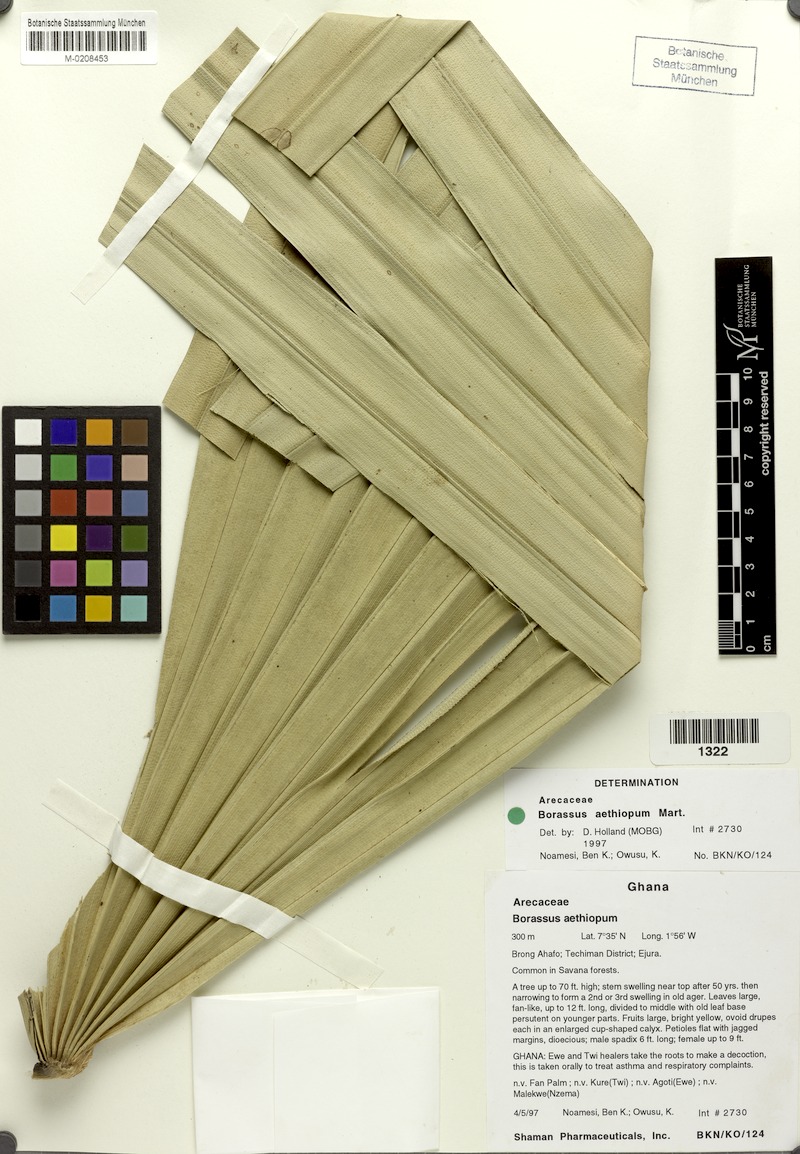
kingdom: Plantae
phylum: Tracheophyta
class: Liliopsida
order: Arecales
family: Arecaceae
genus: Borassus
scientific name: Borassus aethiopum
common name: Elephant palm
